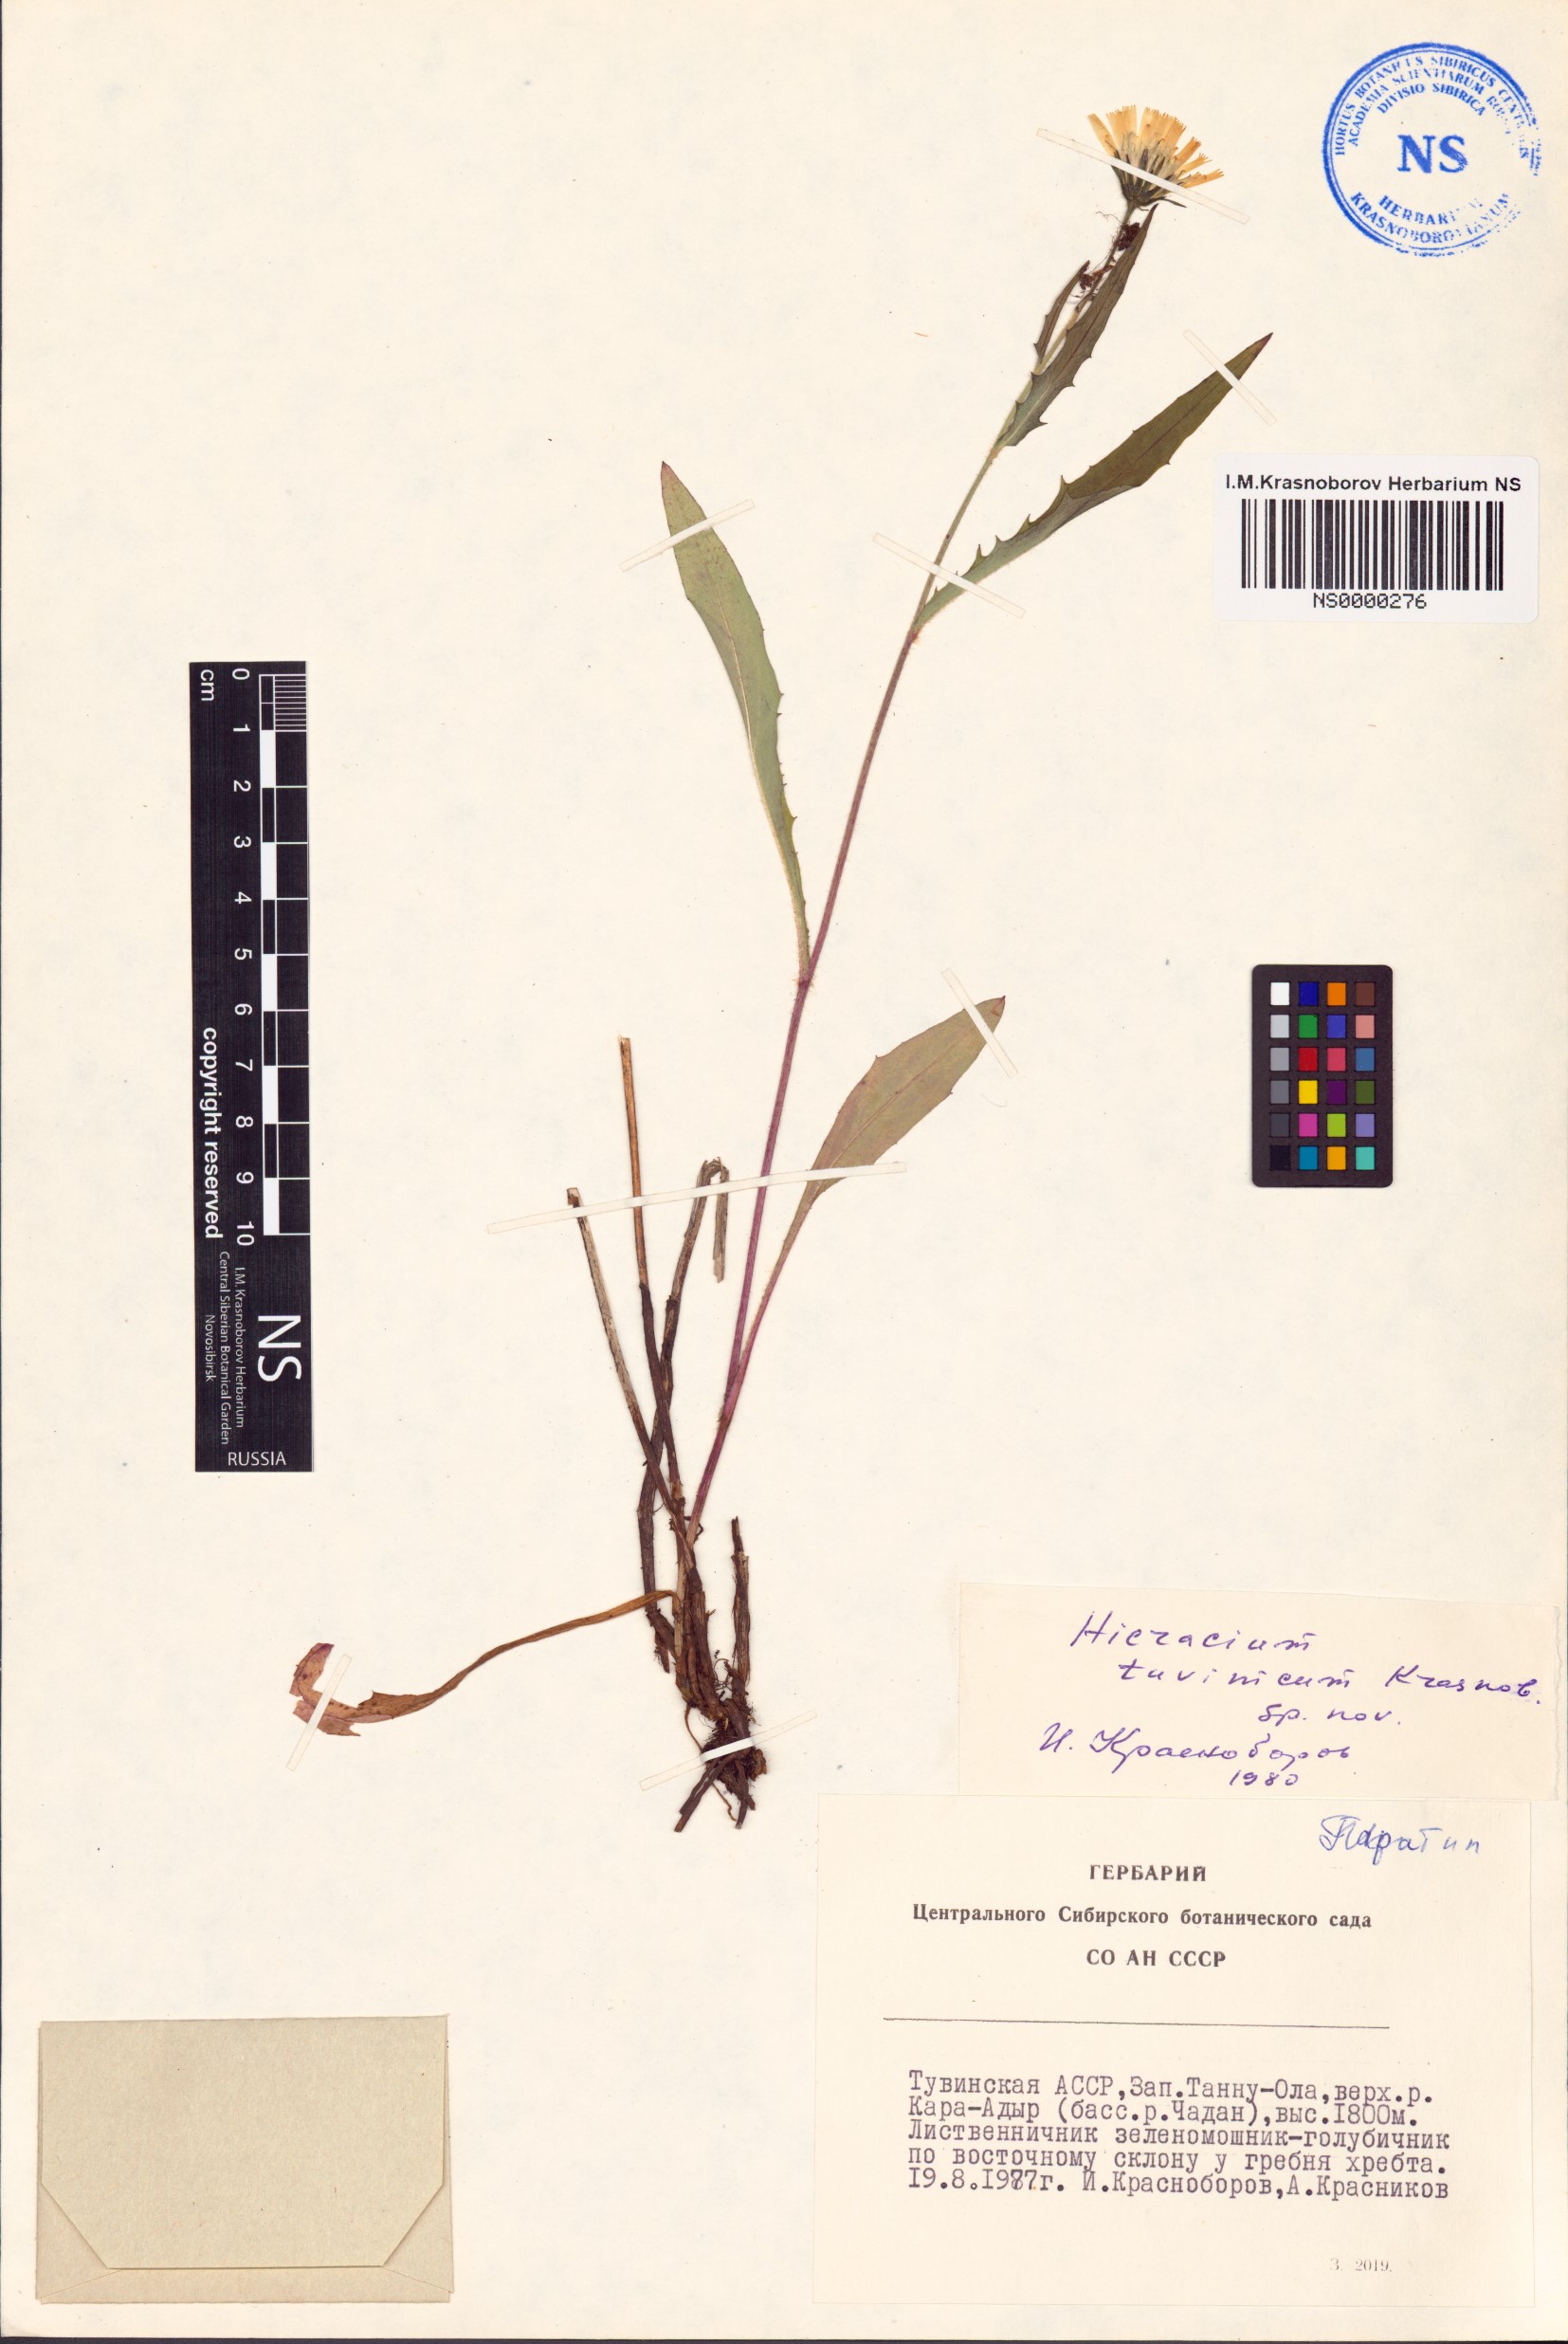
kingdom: Plantae
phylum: Tracheophyta
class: Magnoliopsida
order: Asterales
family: Asteraceae
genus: Hieracium
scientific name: Hieracium tuvinicum
